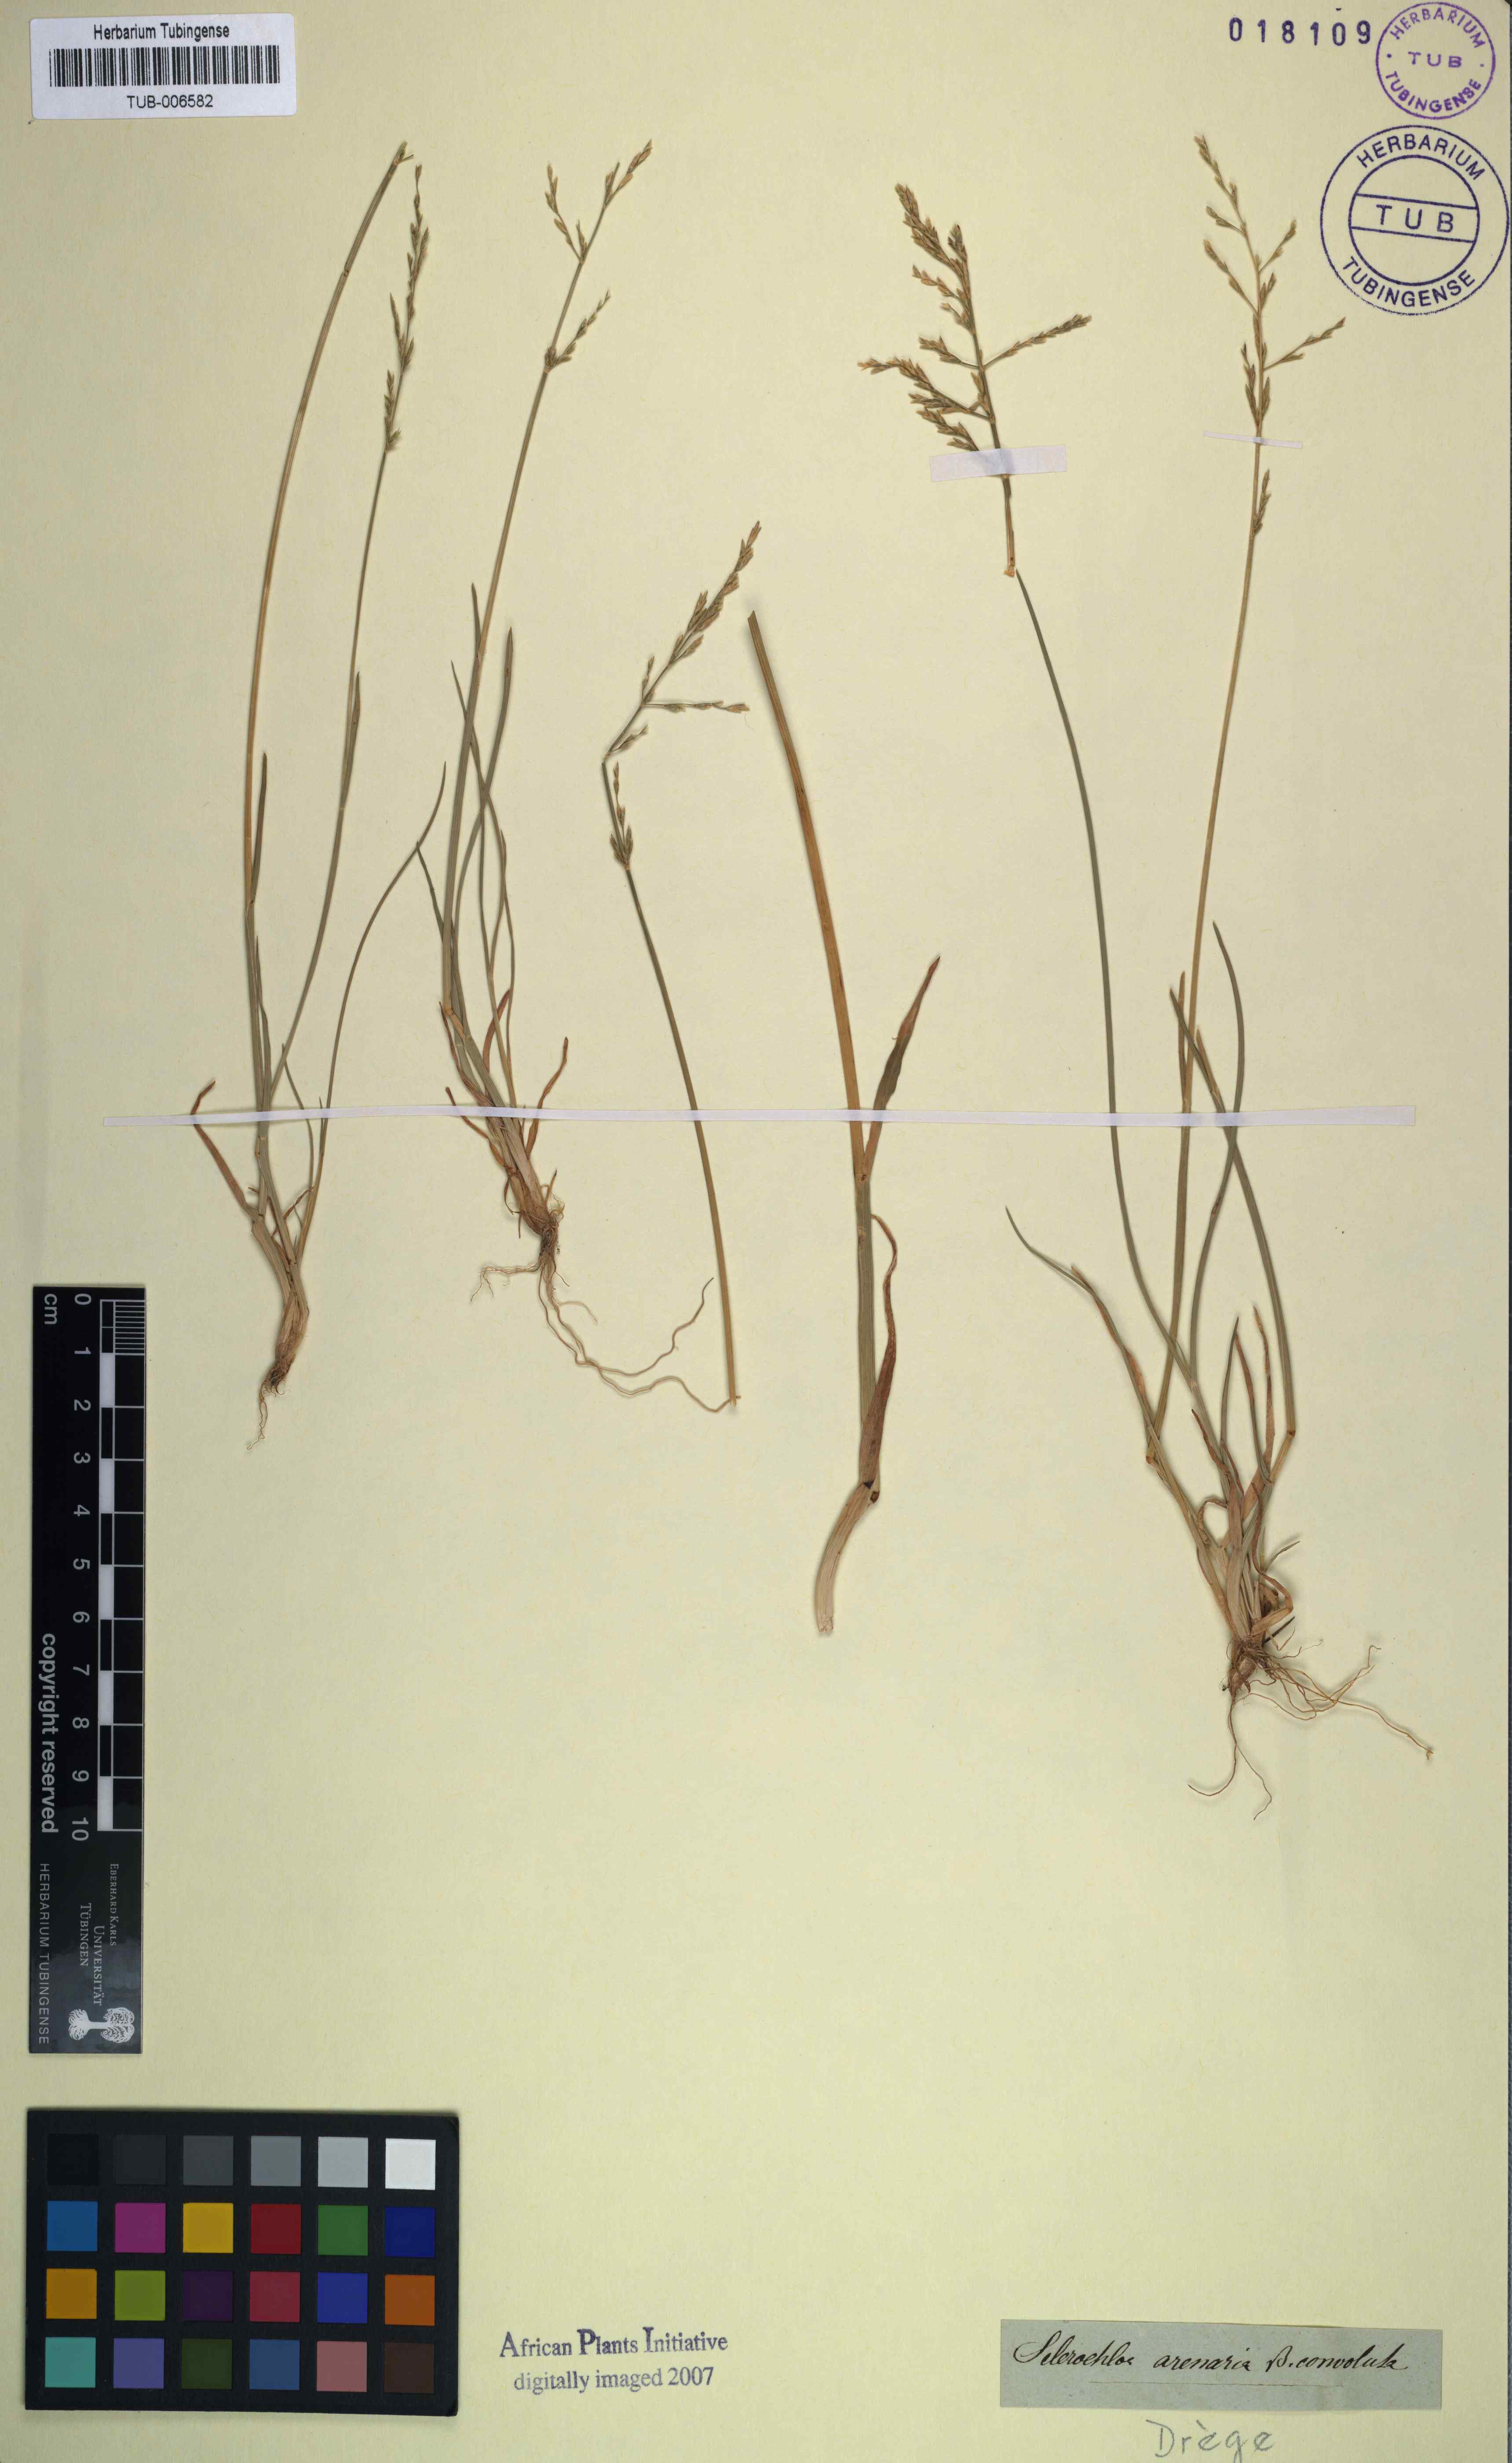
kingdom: Plantae
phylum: Tracheophyta
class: Liliopsida
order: Poales
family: Poaceae
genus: Puccinellia
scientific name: Puccinellia distans
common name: Weeping alkaligrass
